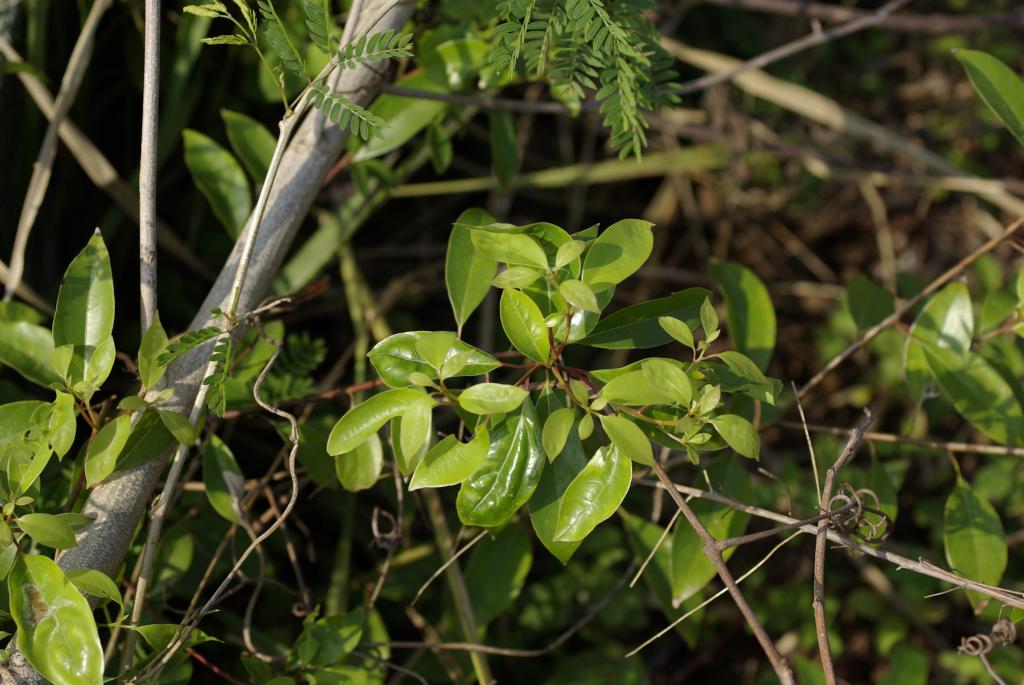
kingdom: Plantae
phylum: Tracheophyta
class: Magnoliopsida
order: Laurales
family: Lauraceae
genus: Cinnamomum
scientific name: Cinnamomum camphora
